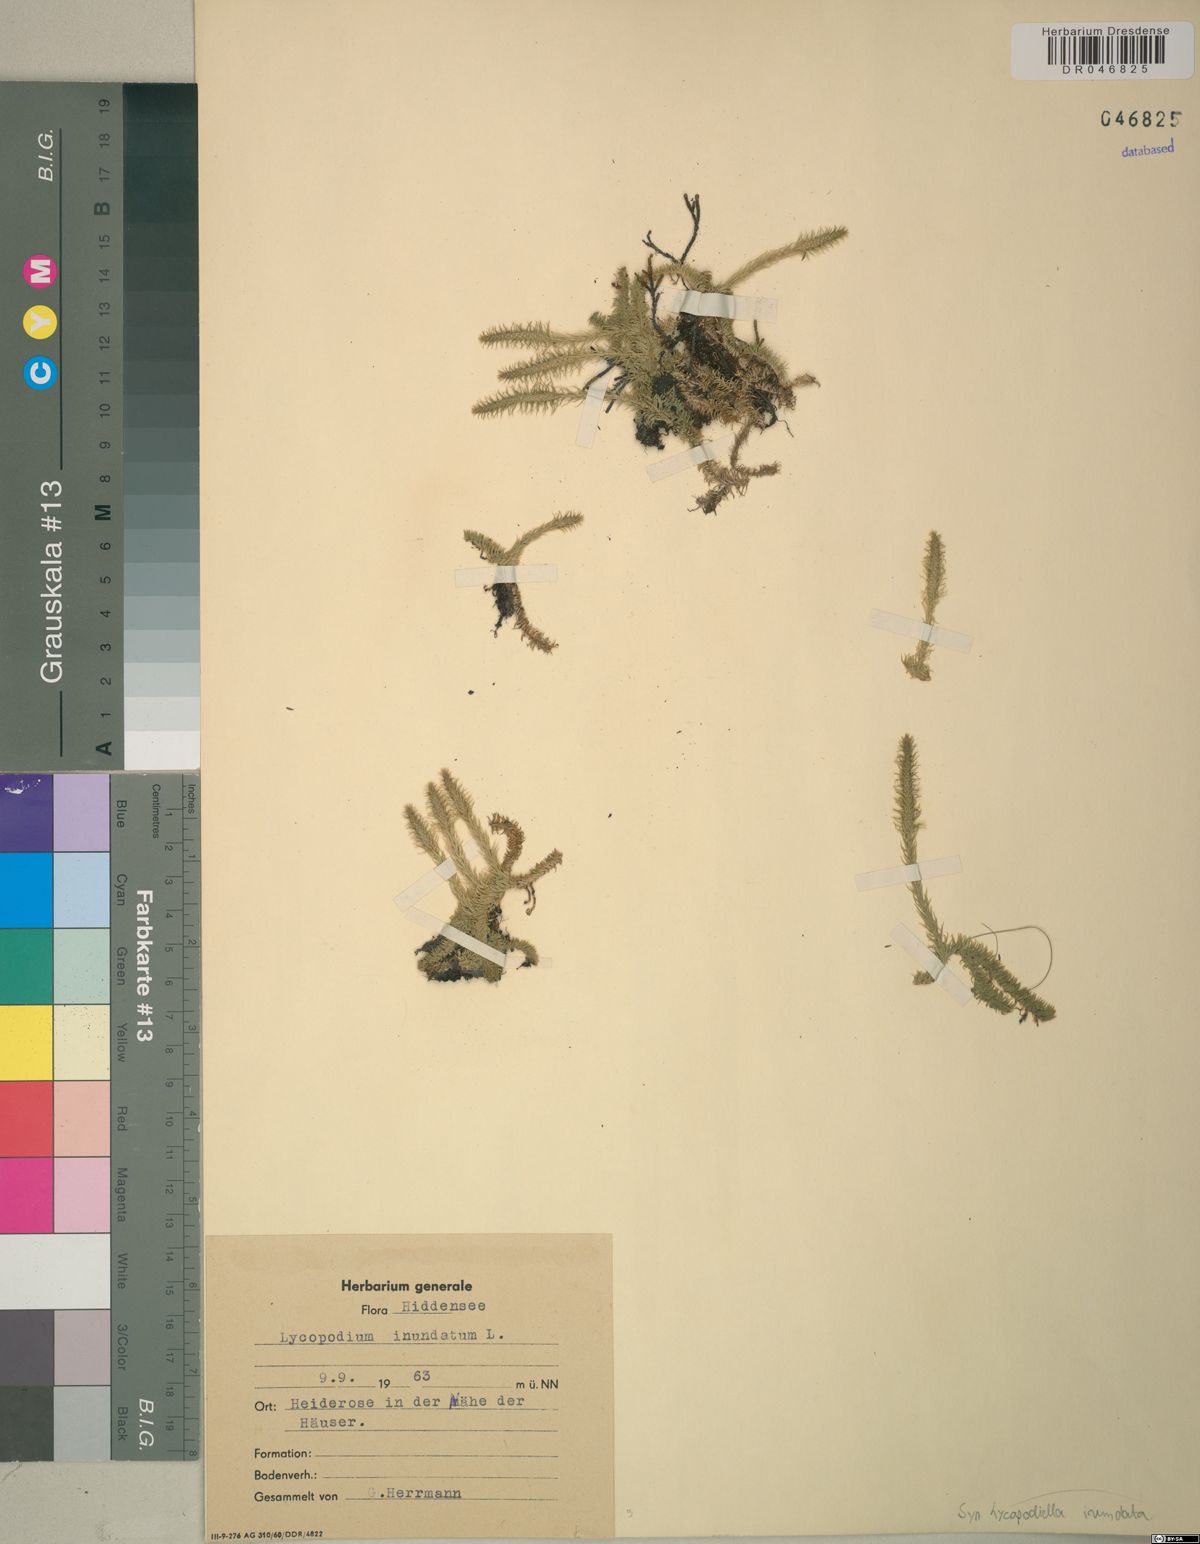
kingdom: Plantae
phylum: Tracheophyta
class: Lycopodiopsida
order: Lycopodiales
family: Lycopodiaceae
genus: Lycopodiella
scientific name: Lycopodiella inundata
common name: Marsh clubmoss
